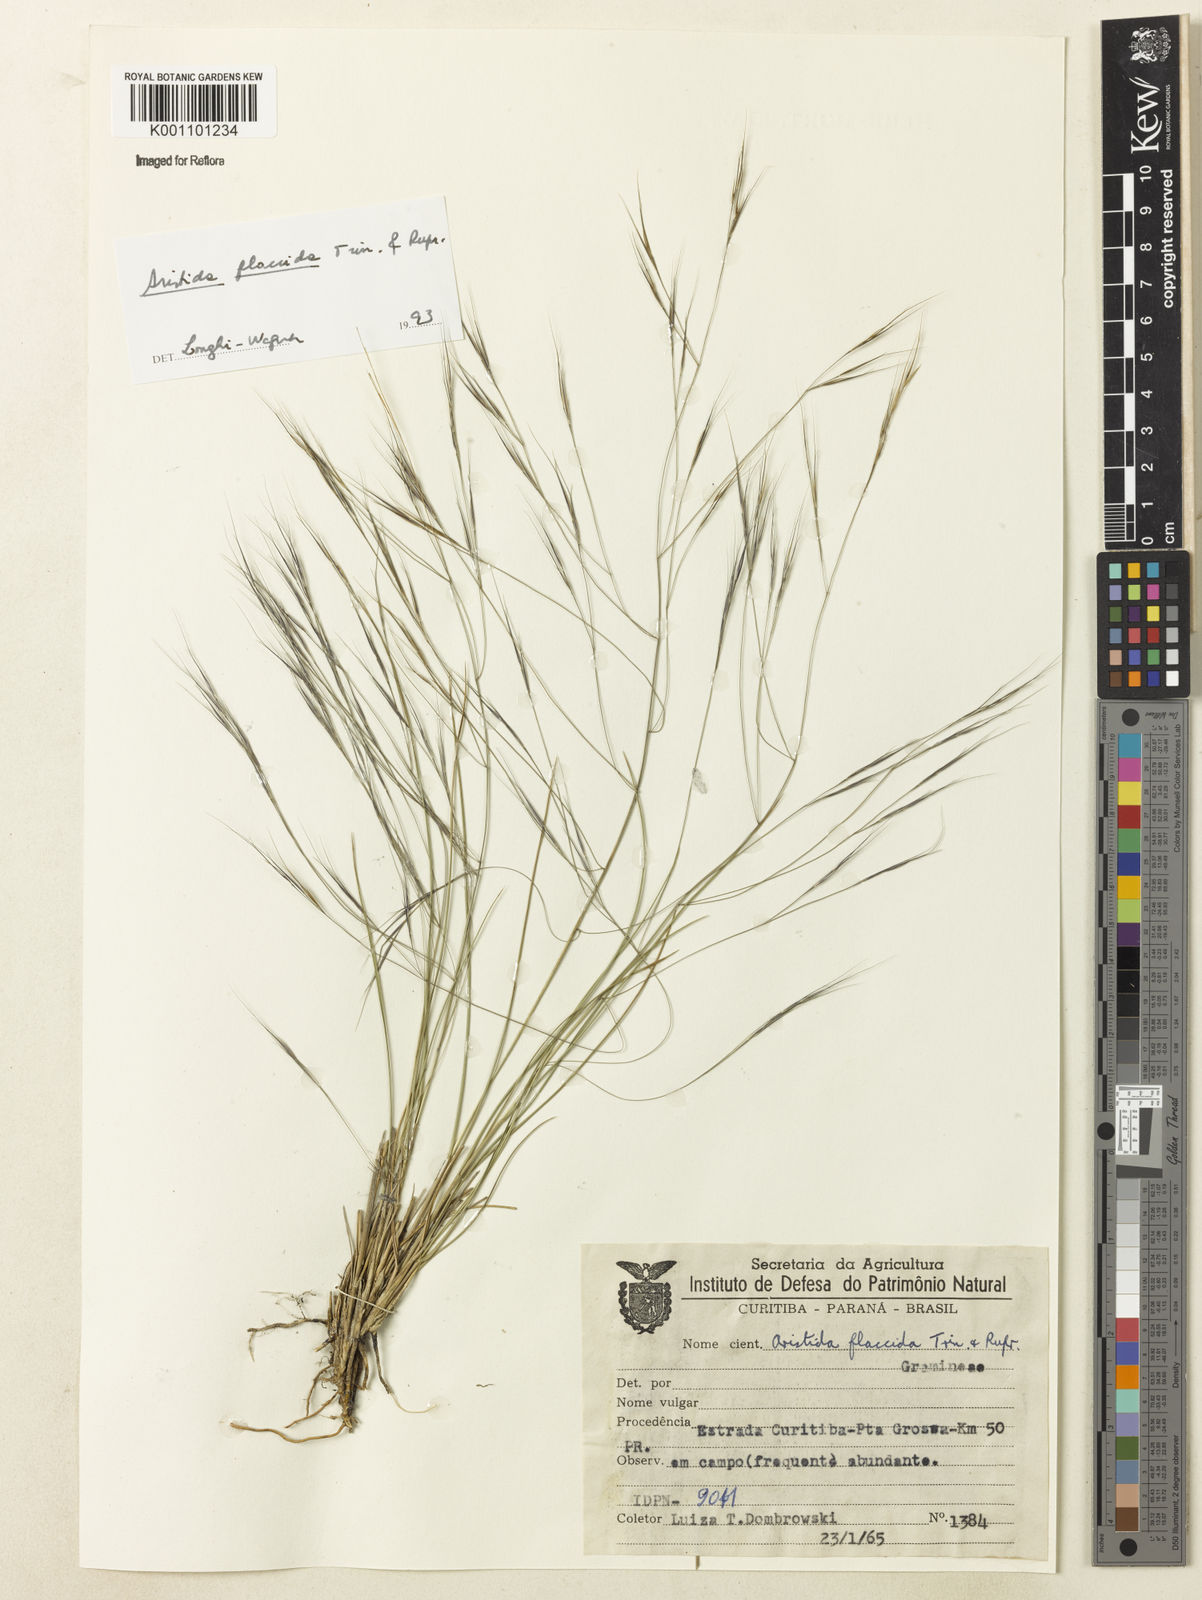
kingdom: Plantae
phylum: Tracheophyta
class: Liliopsida
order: Poales
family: Poaceae
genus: Aristida
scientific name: Aristida flaccida
